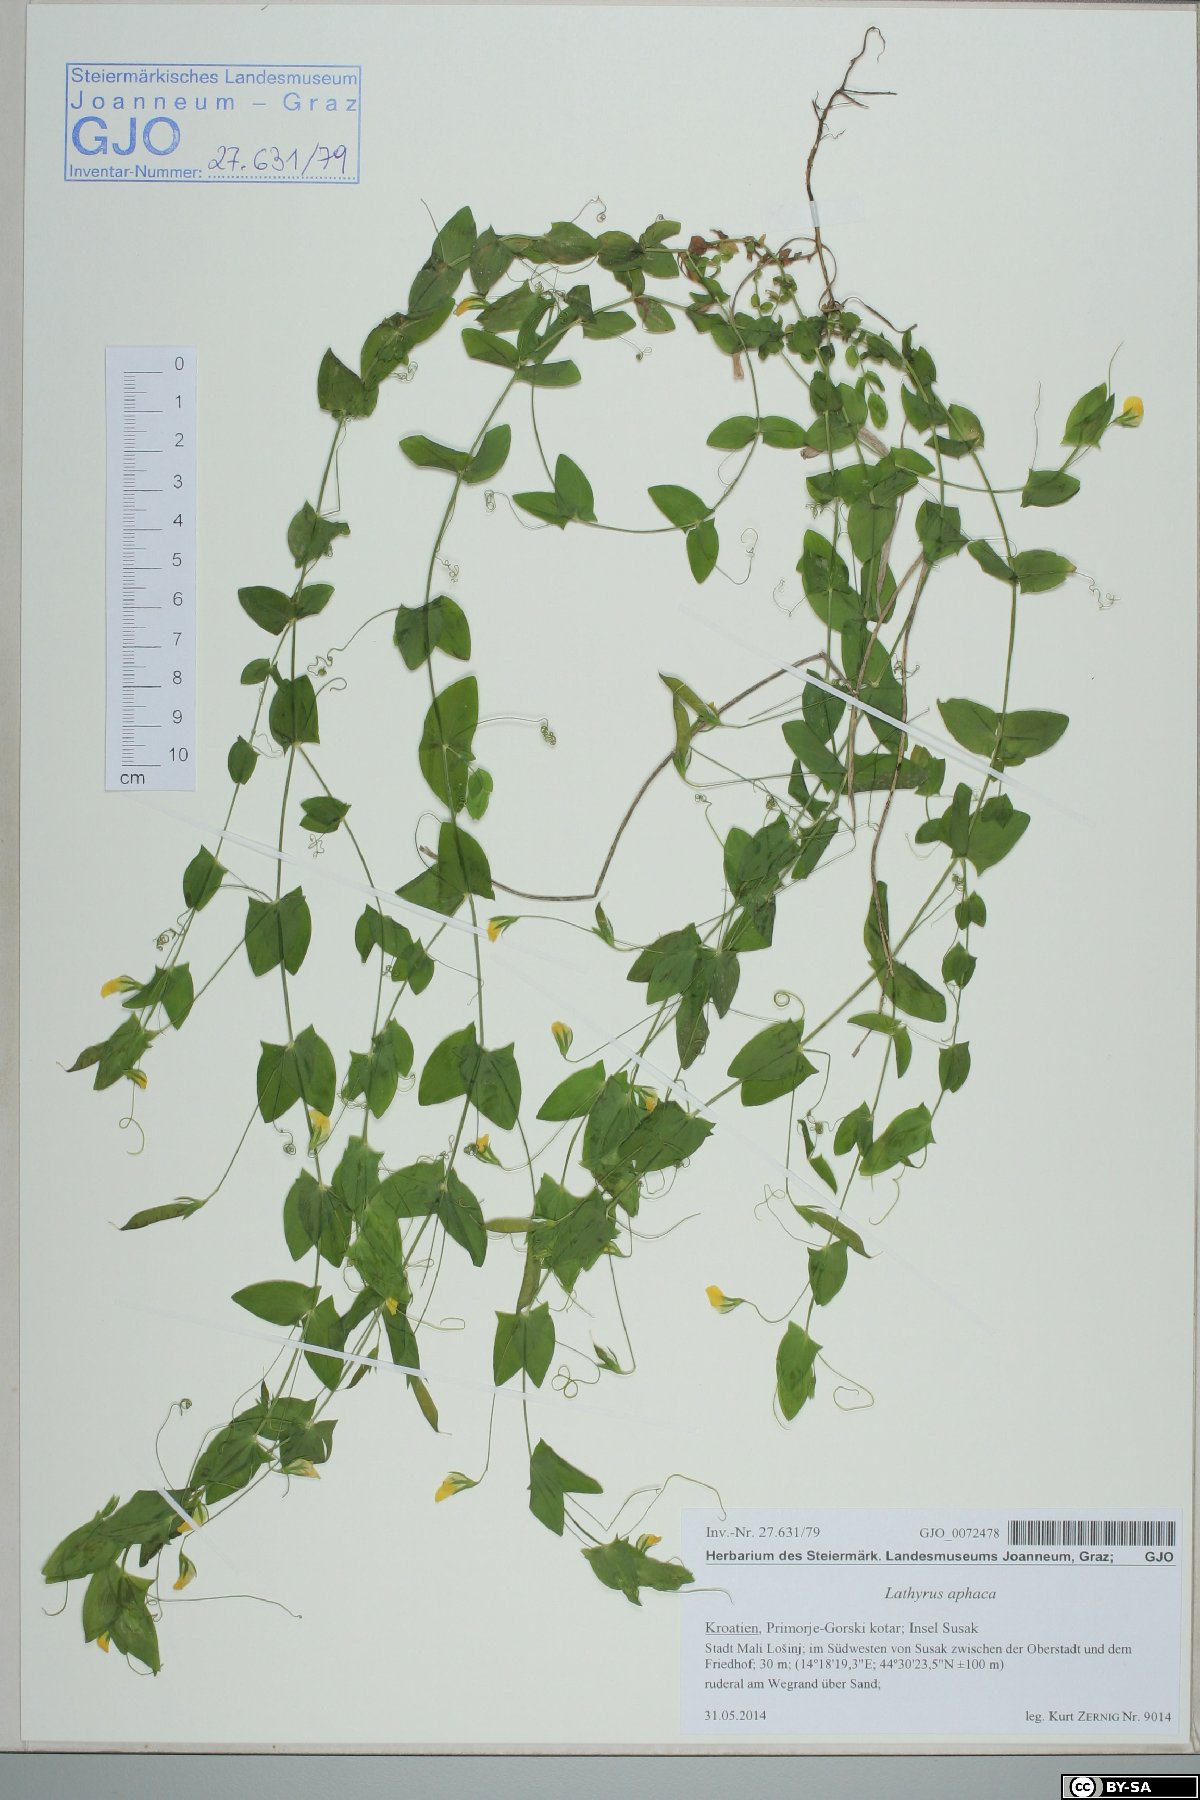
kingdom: Plantae
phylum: Tracheophyta
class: Magnoliopsida
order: Fabales
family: Fabaceae
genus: Lathyrus
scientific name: Lathyrus aphaca
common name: Yellow vetchling
